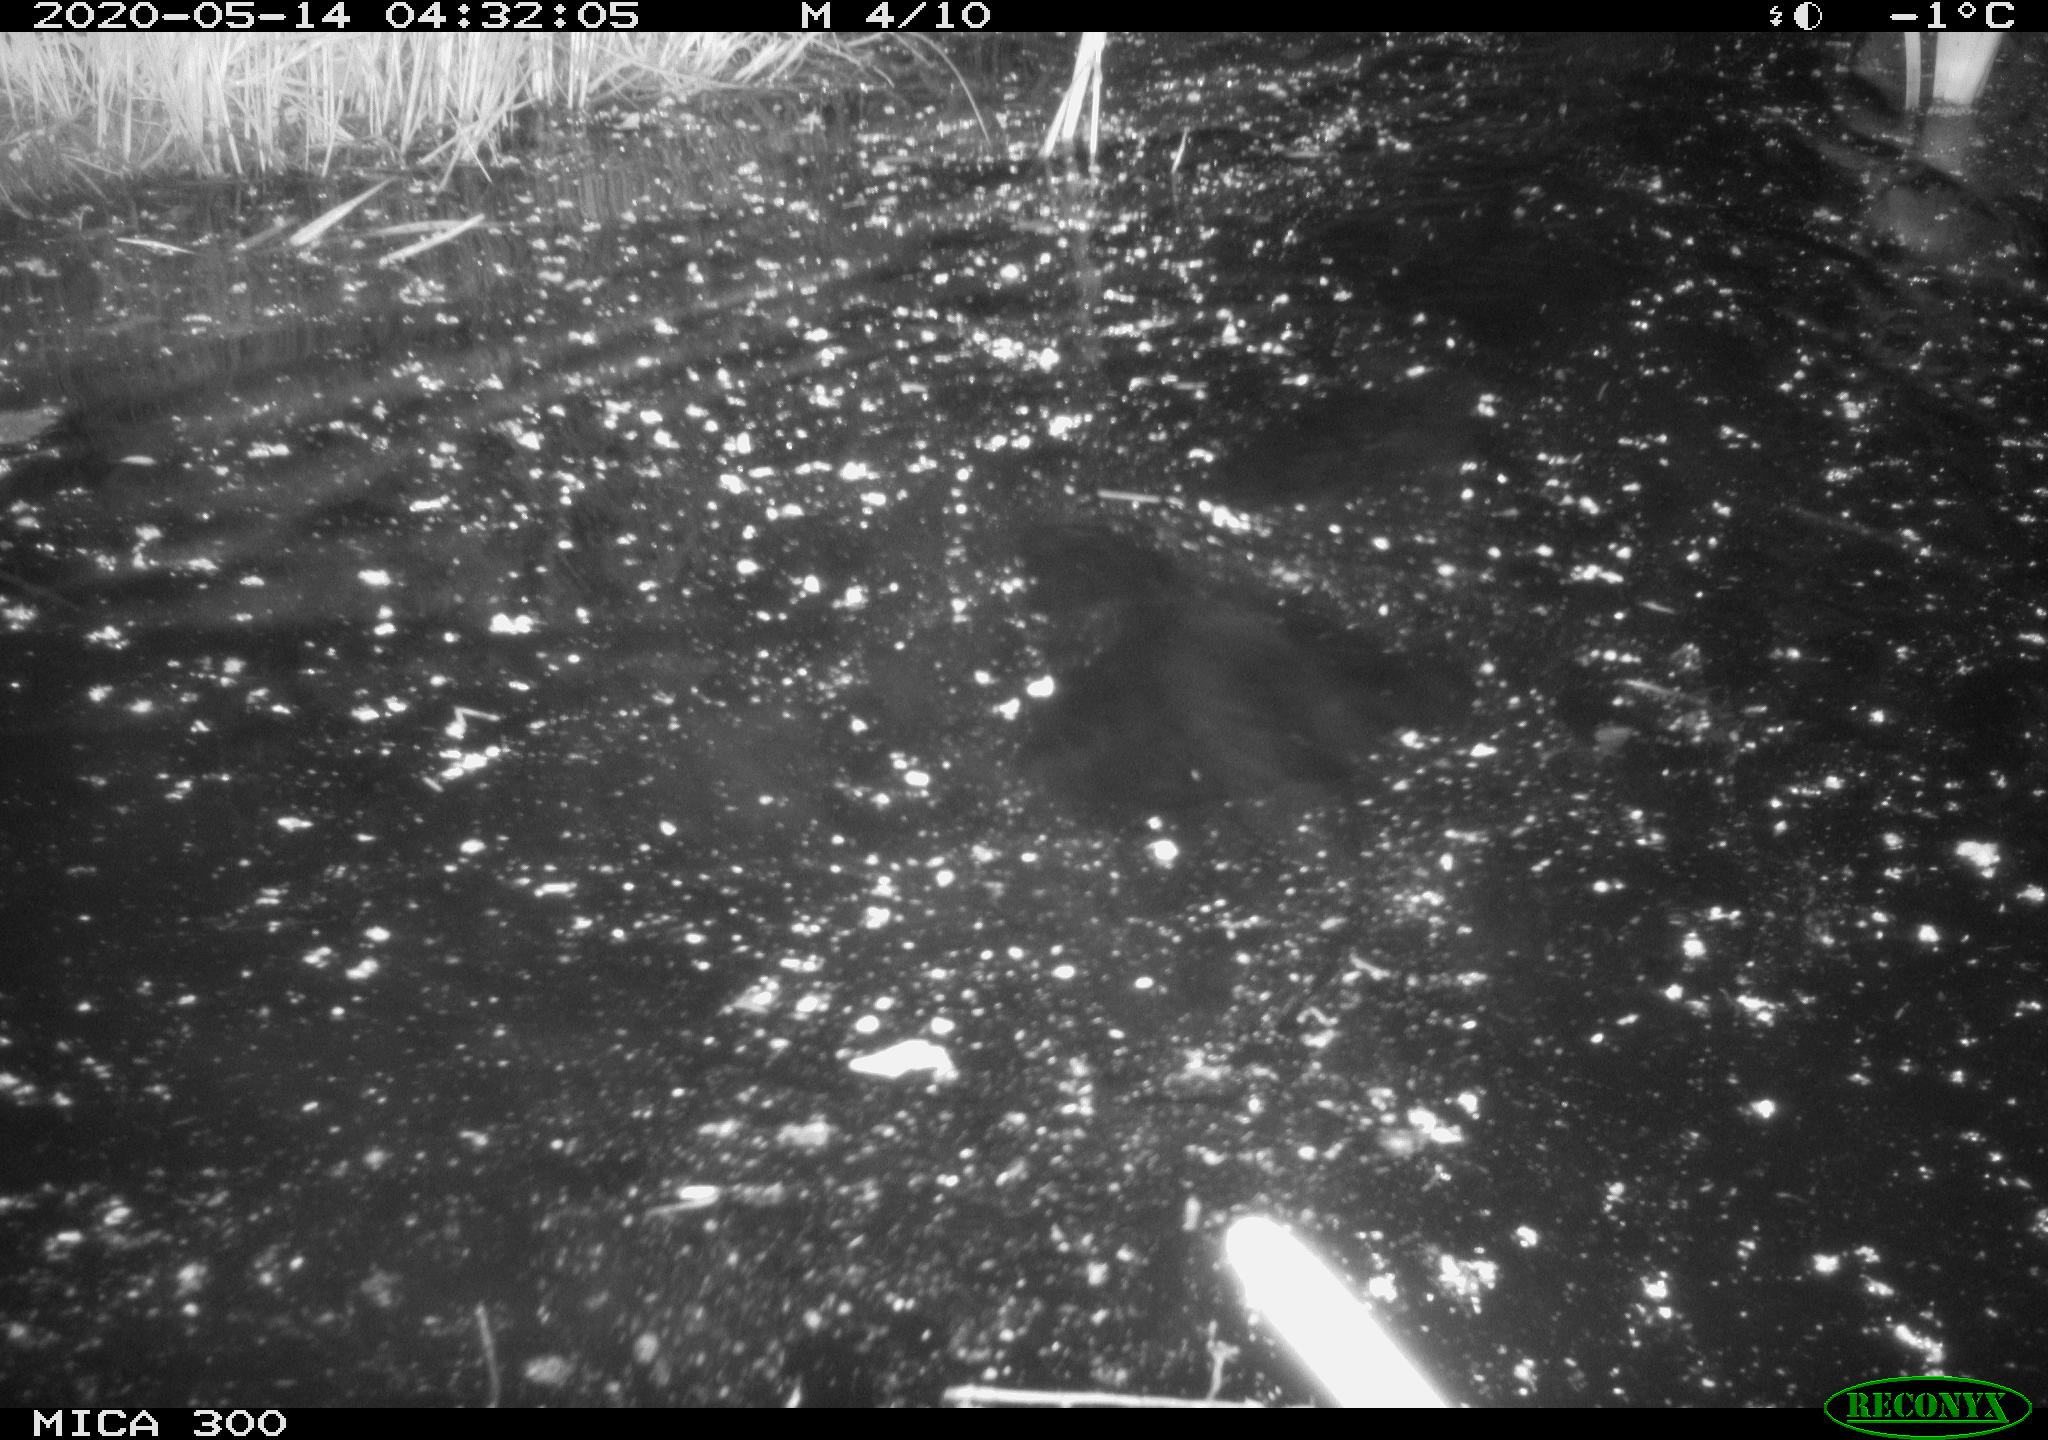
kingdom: Animalia
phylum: Chordata
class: Mammalia
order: Rodentia
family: Castoridae
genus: Castor
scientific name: Castor fiber
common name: Eurasian beaver
